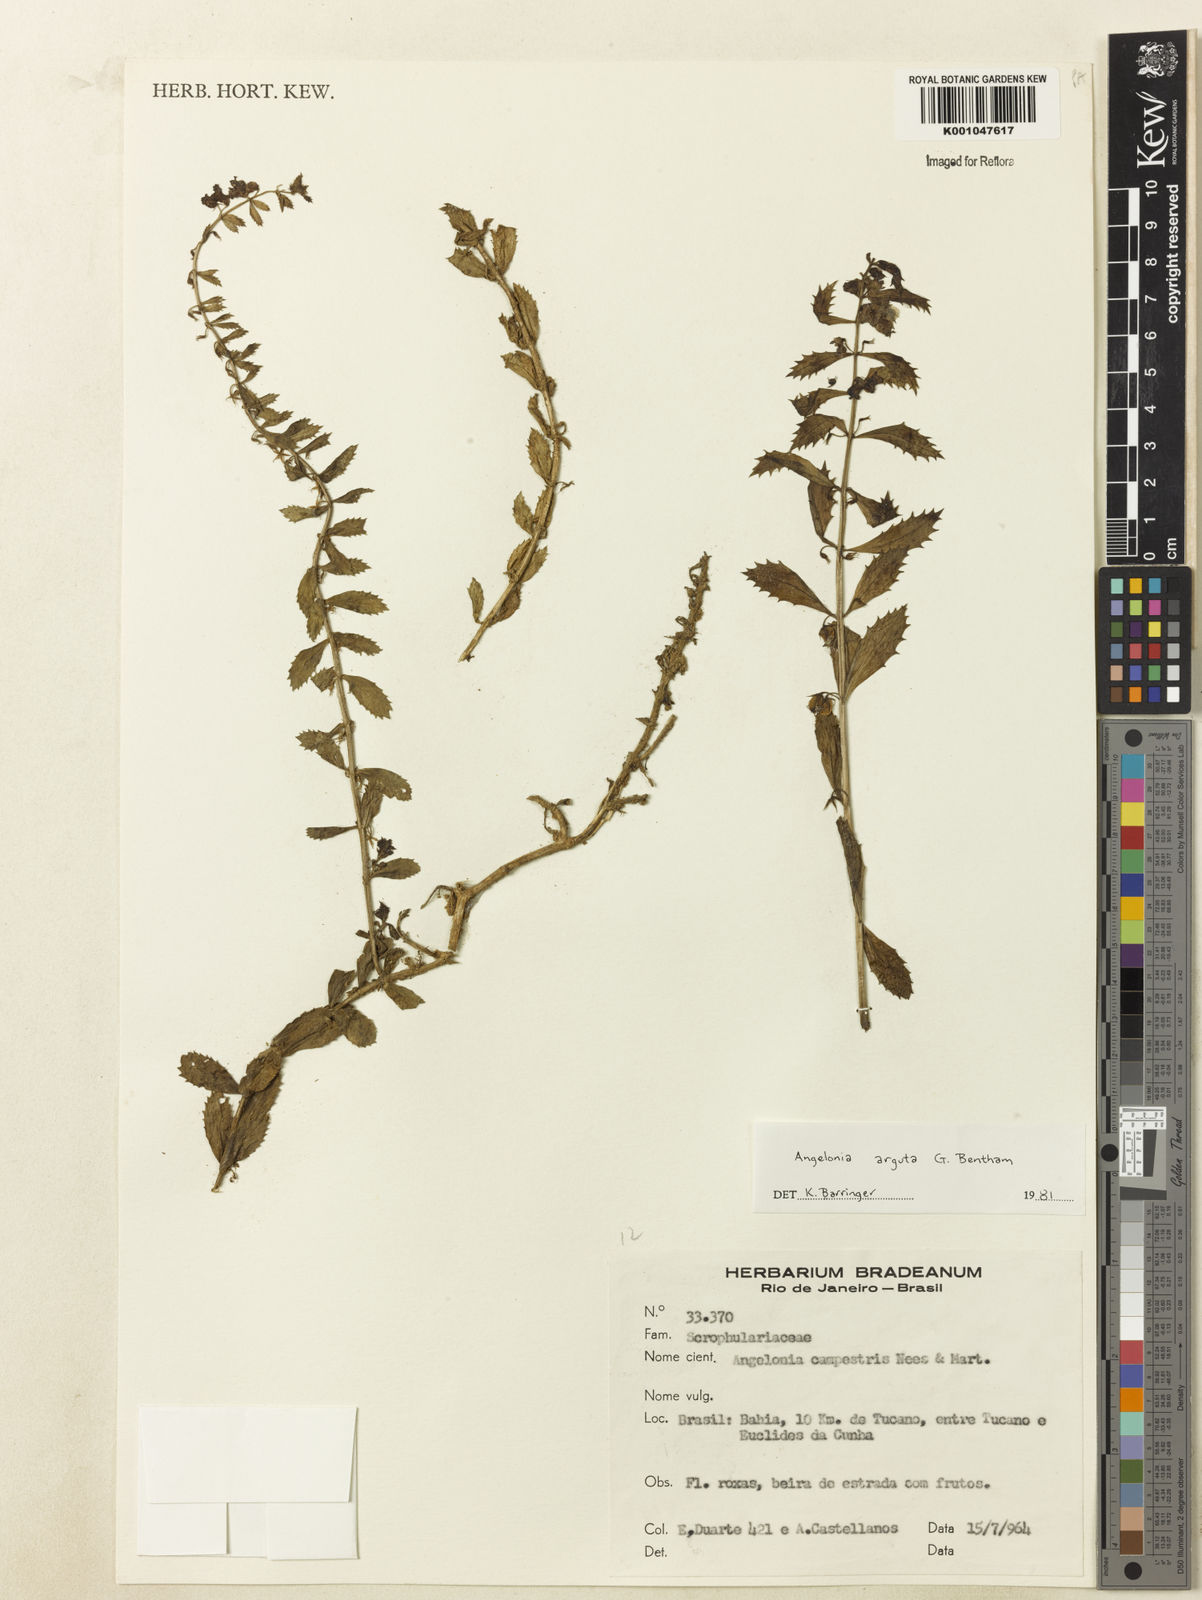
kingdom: Plantae
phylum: Tracheophyta
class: Magnoliopsida
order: Lamiales
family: Plantaginaceae
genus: Angelonia
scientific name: Angelonia arguta
